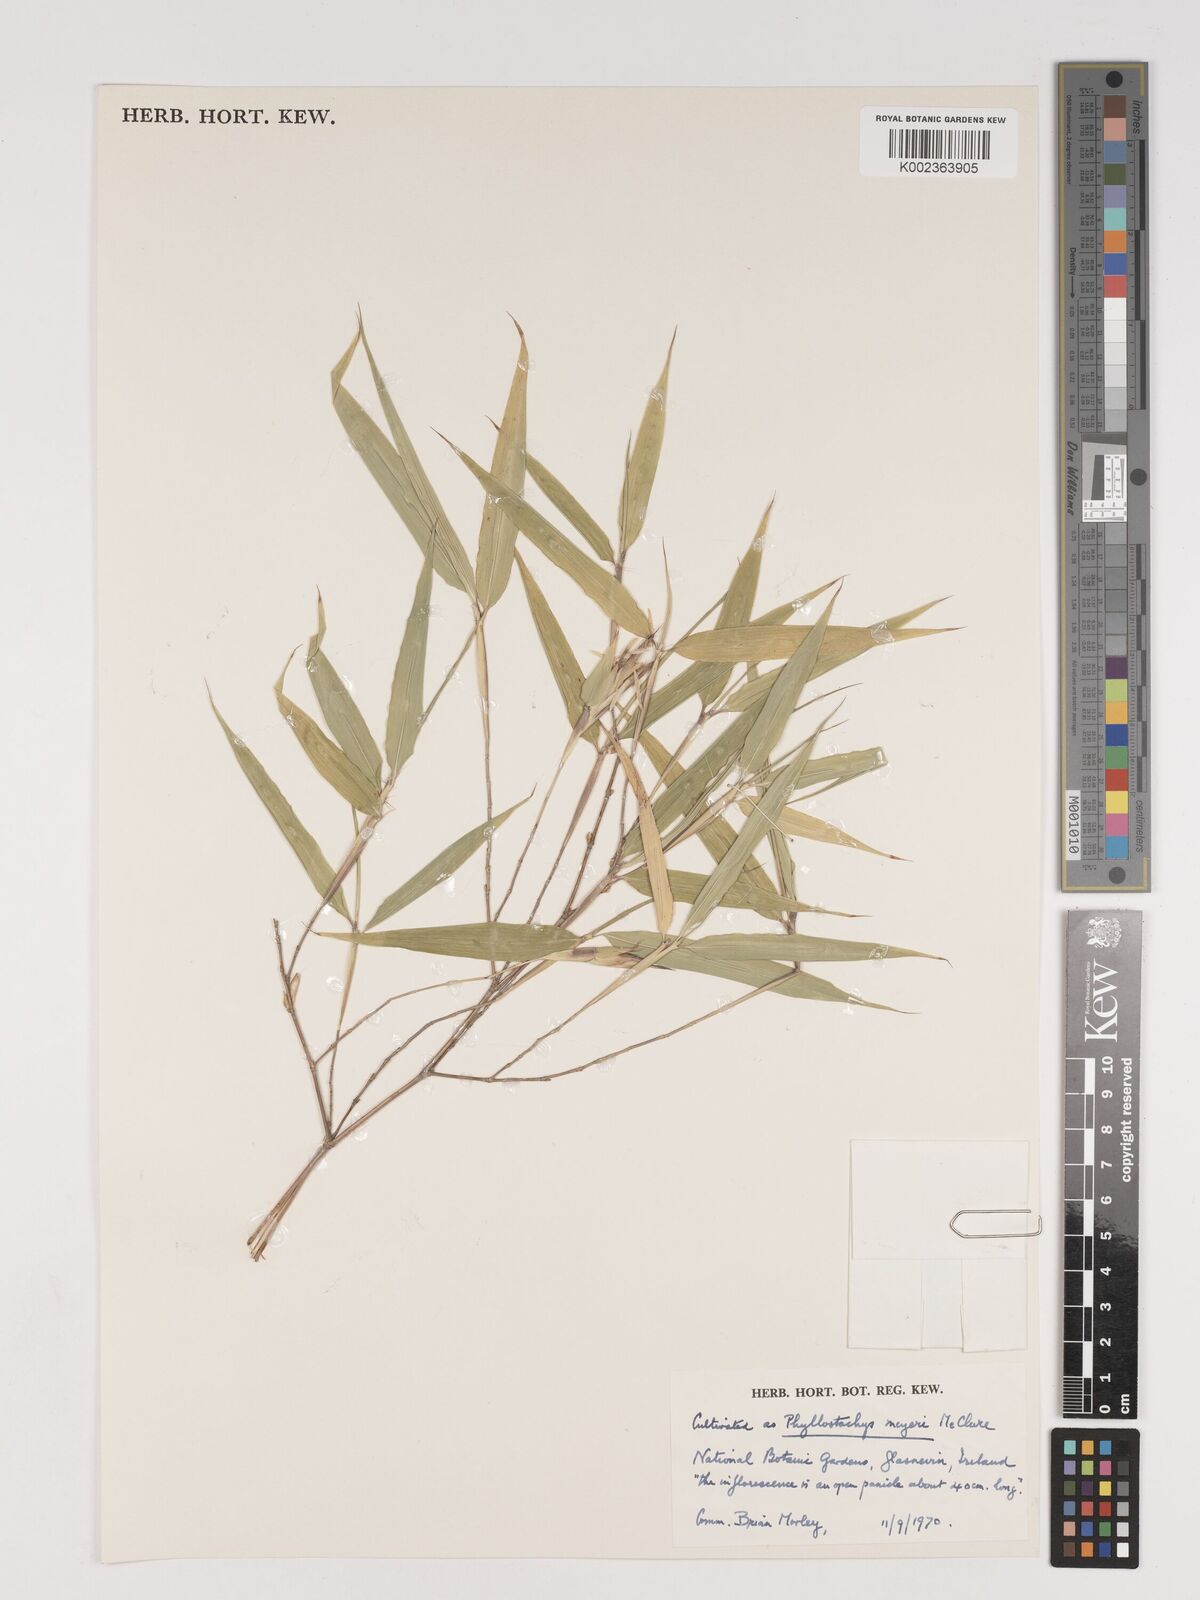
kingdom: Plantae
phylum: Tracheophyta
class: Liliopsida
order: Poales
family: Poaceae
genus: Phyllostachys
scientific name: Phyllostachys meyeri
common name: Meyer's bamboo
